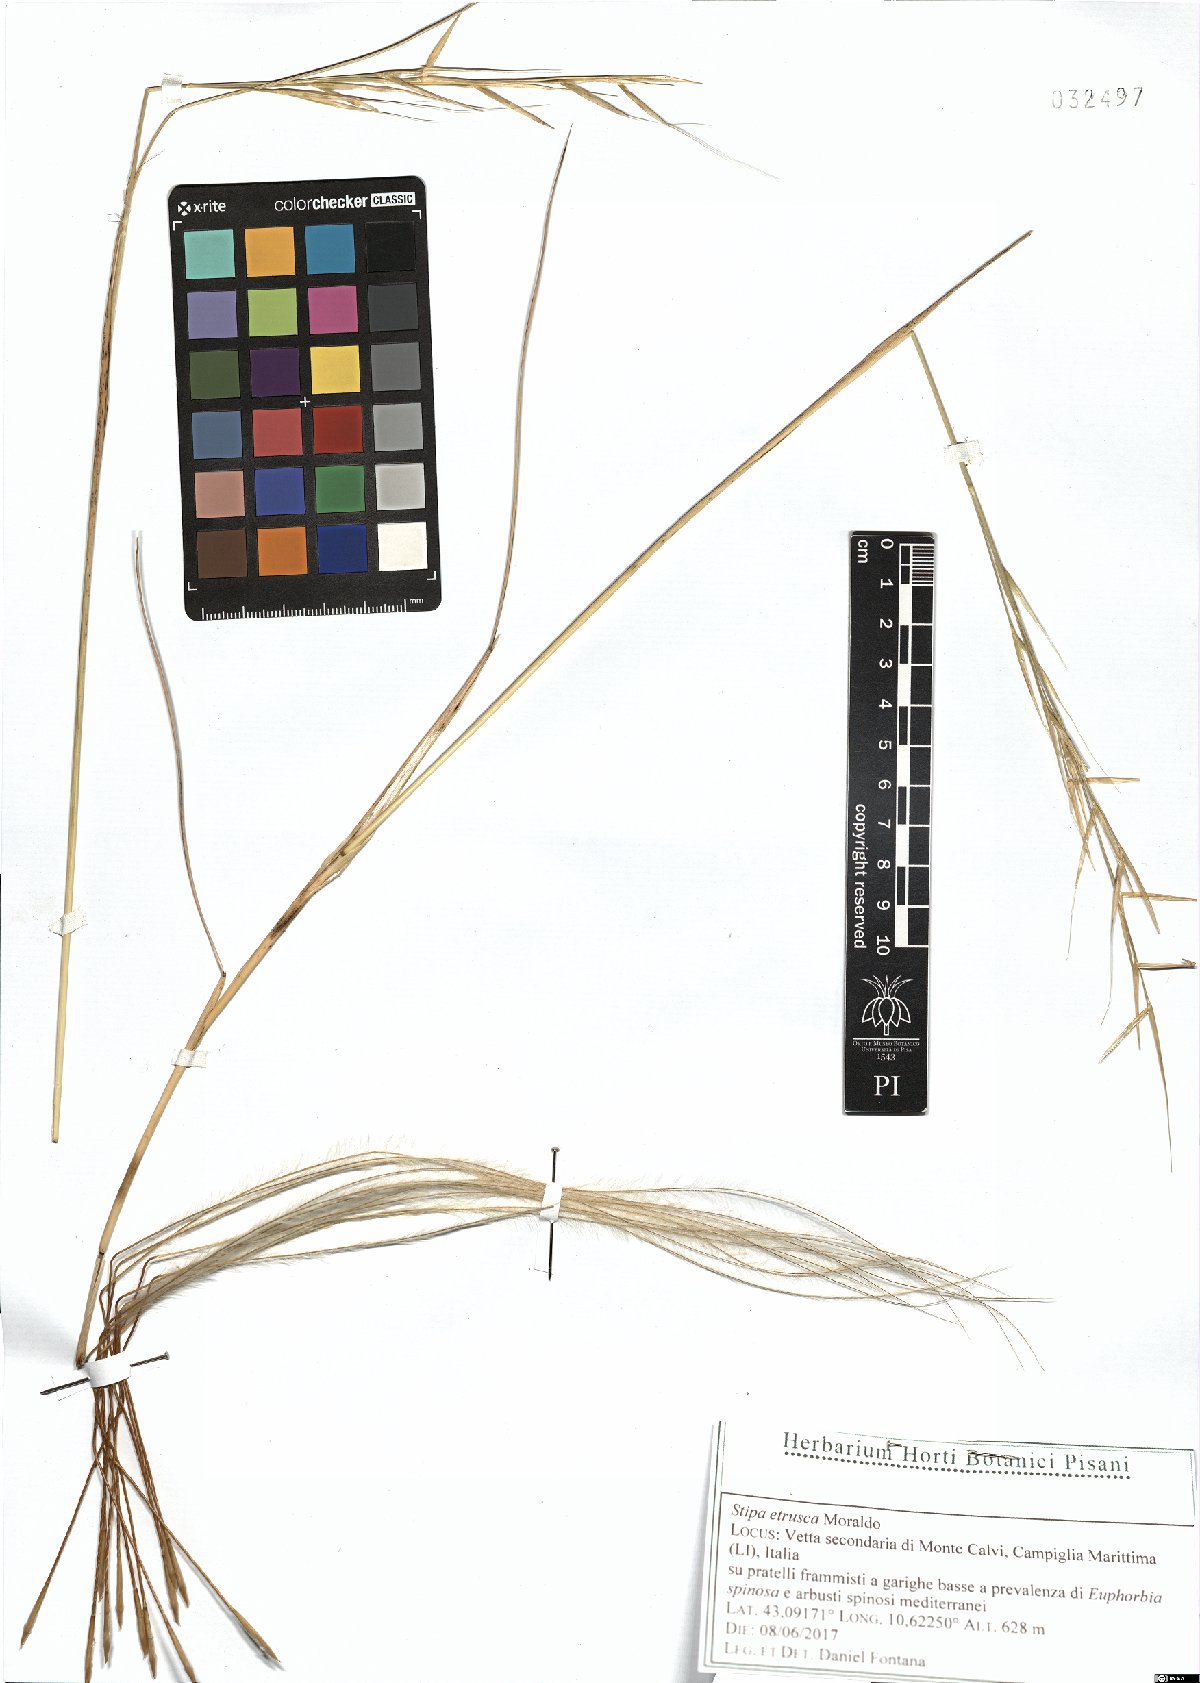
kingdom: Plantae
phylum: Tracheophyta
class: Liliopsida
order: Poales
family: Poaceae
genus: Stipa
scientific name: Stipa pulcherrima
